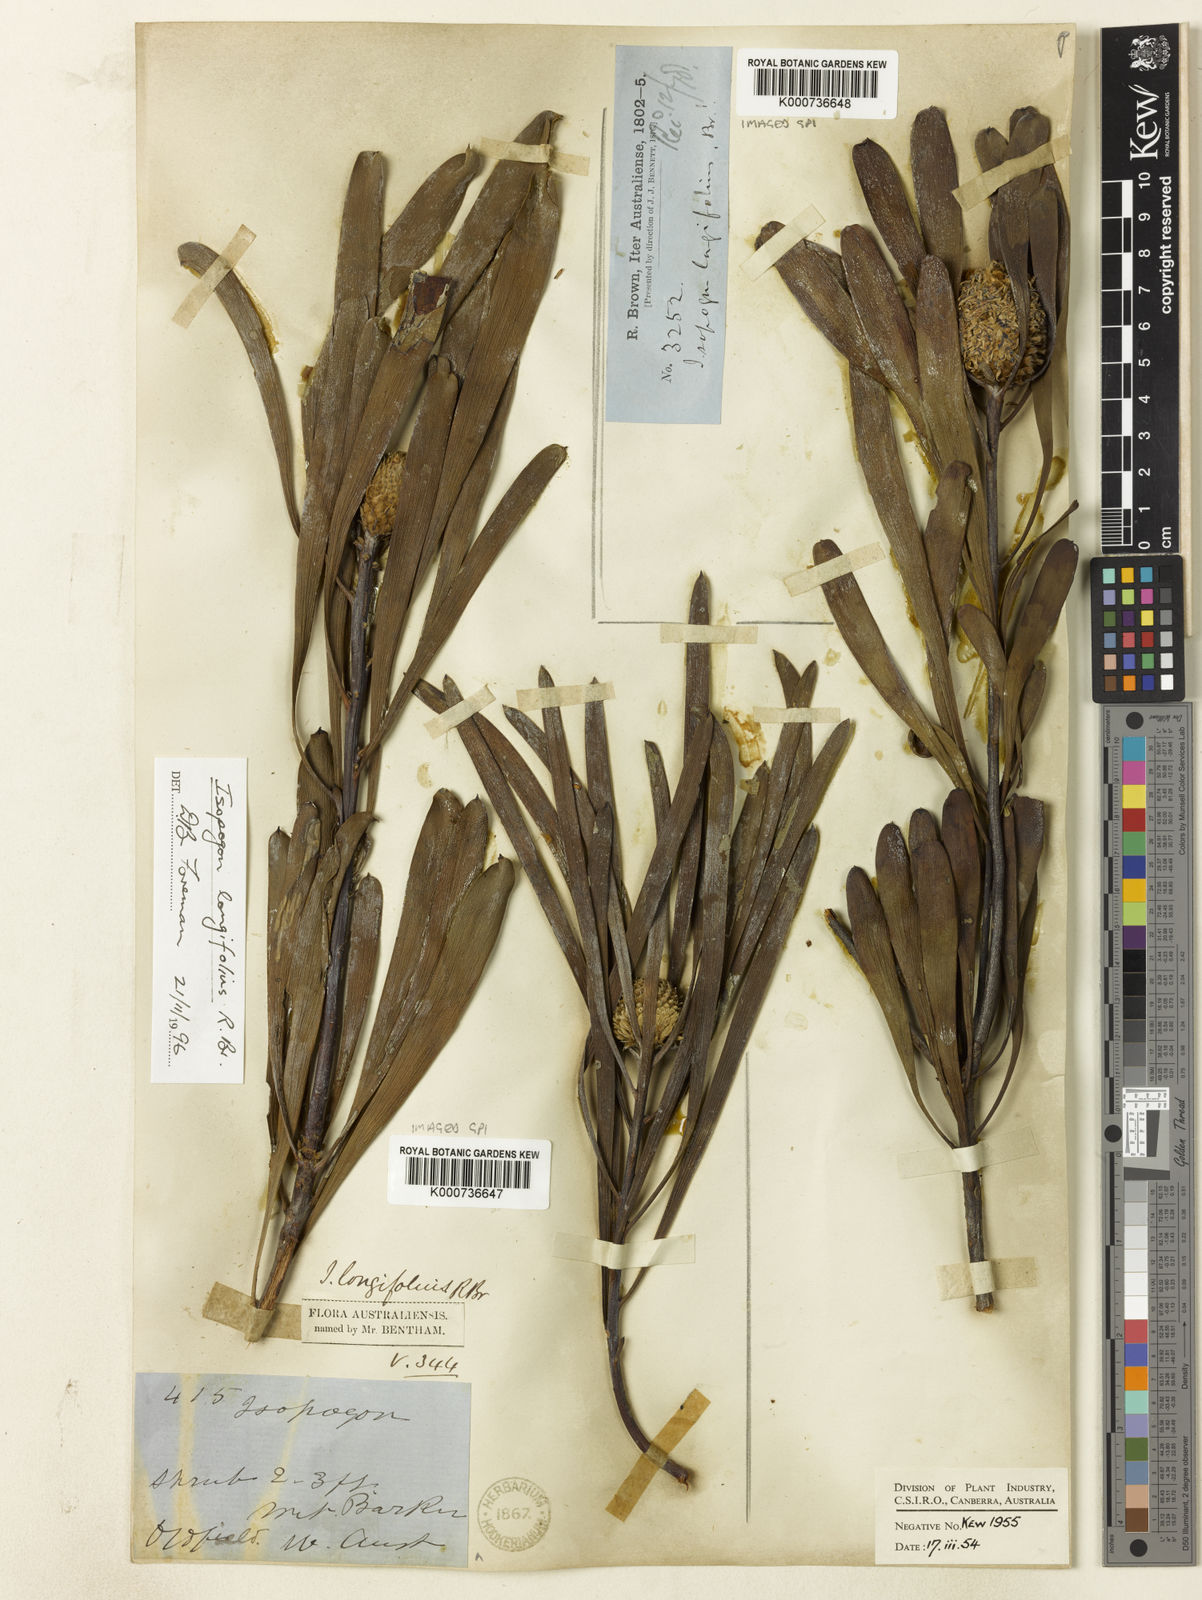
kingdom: Plantae
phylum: Tracheophyta
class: Magnoliopsida
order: Proteales
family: Proteaceae
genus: Isopogon
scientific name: Isopogon longifolius
